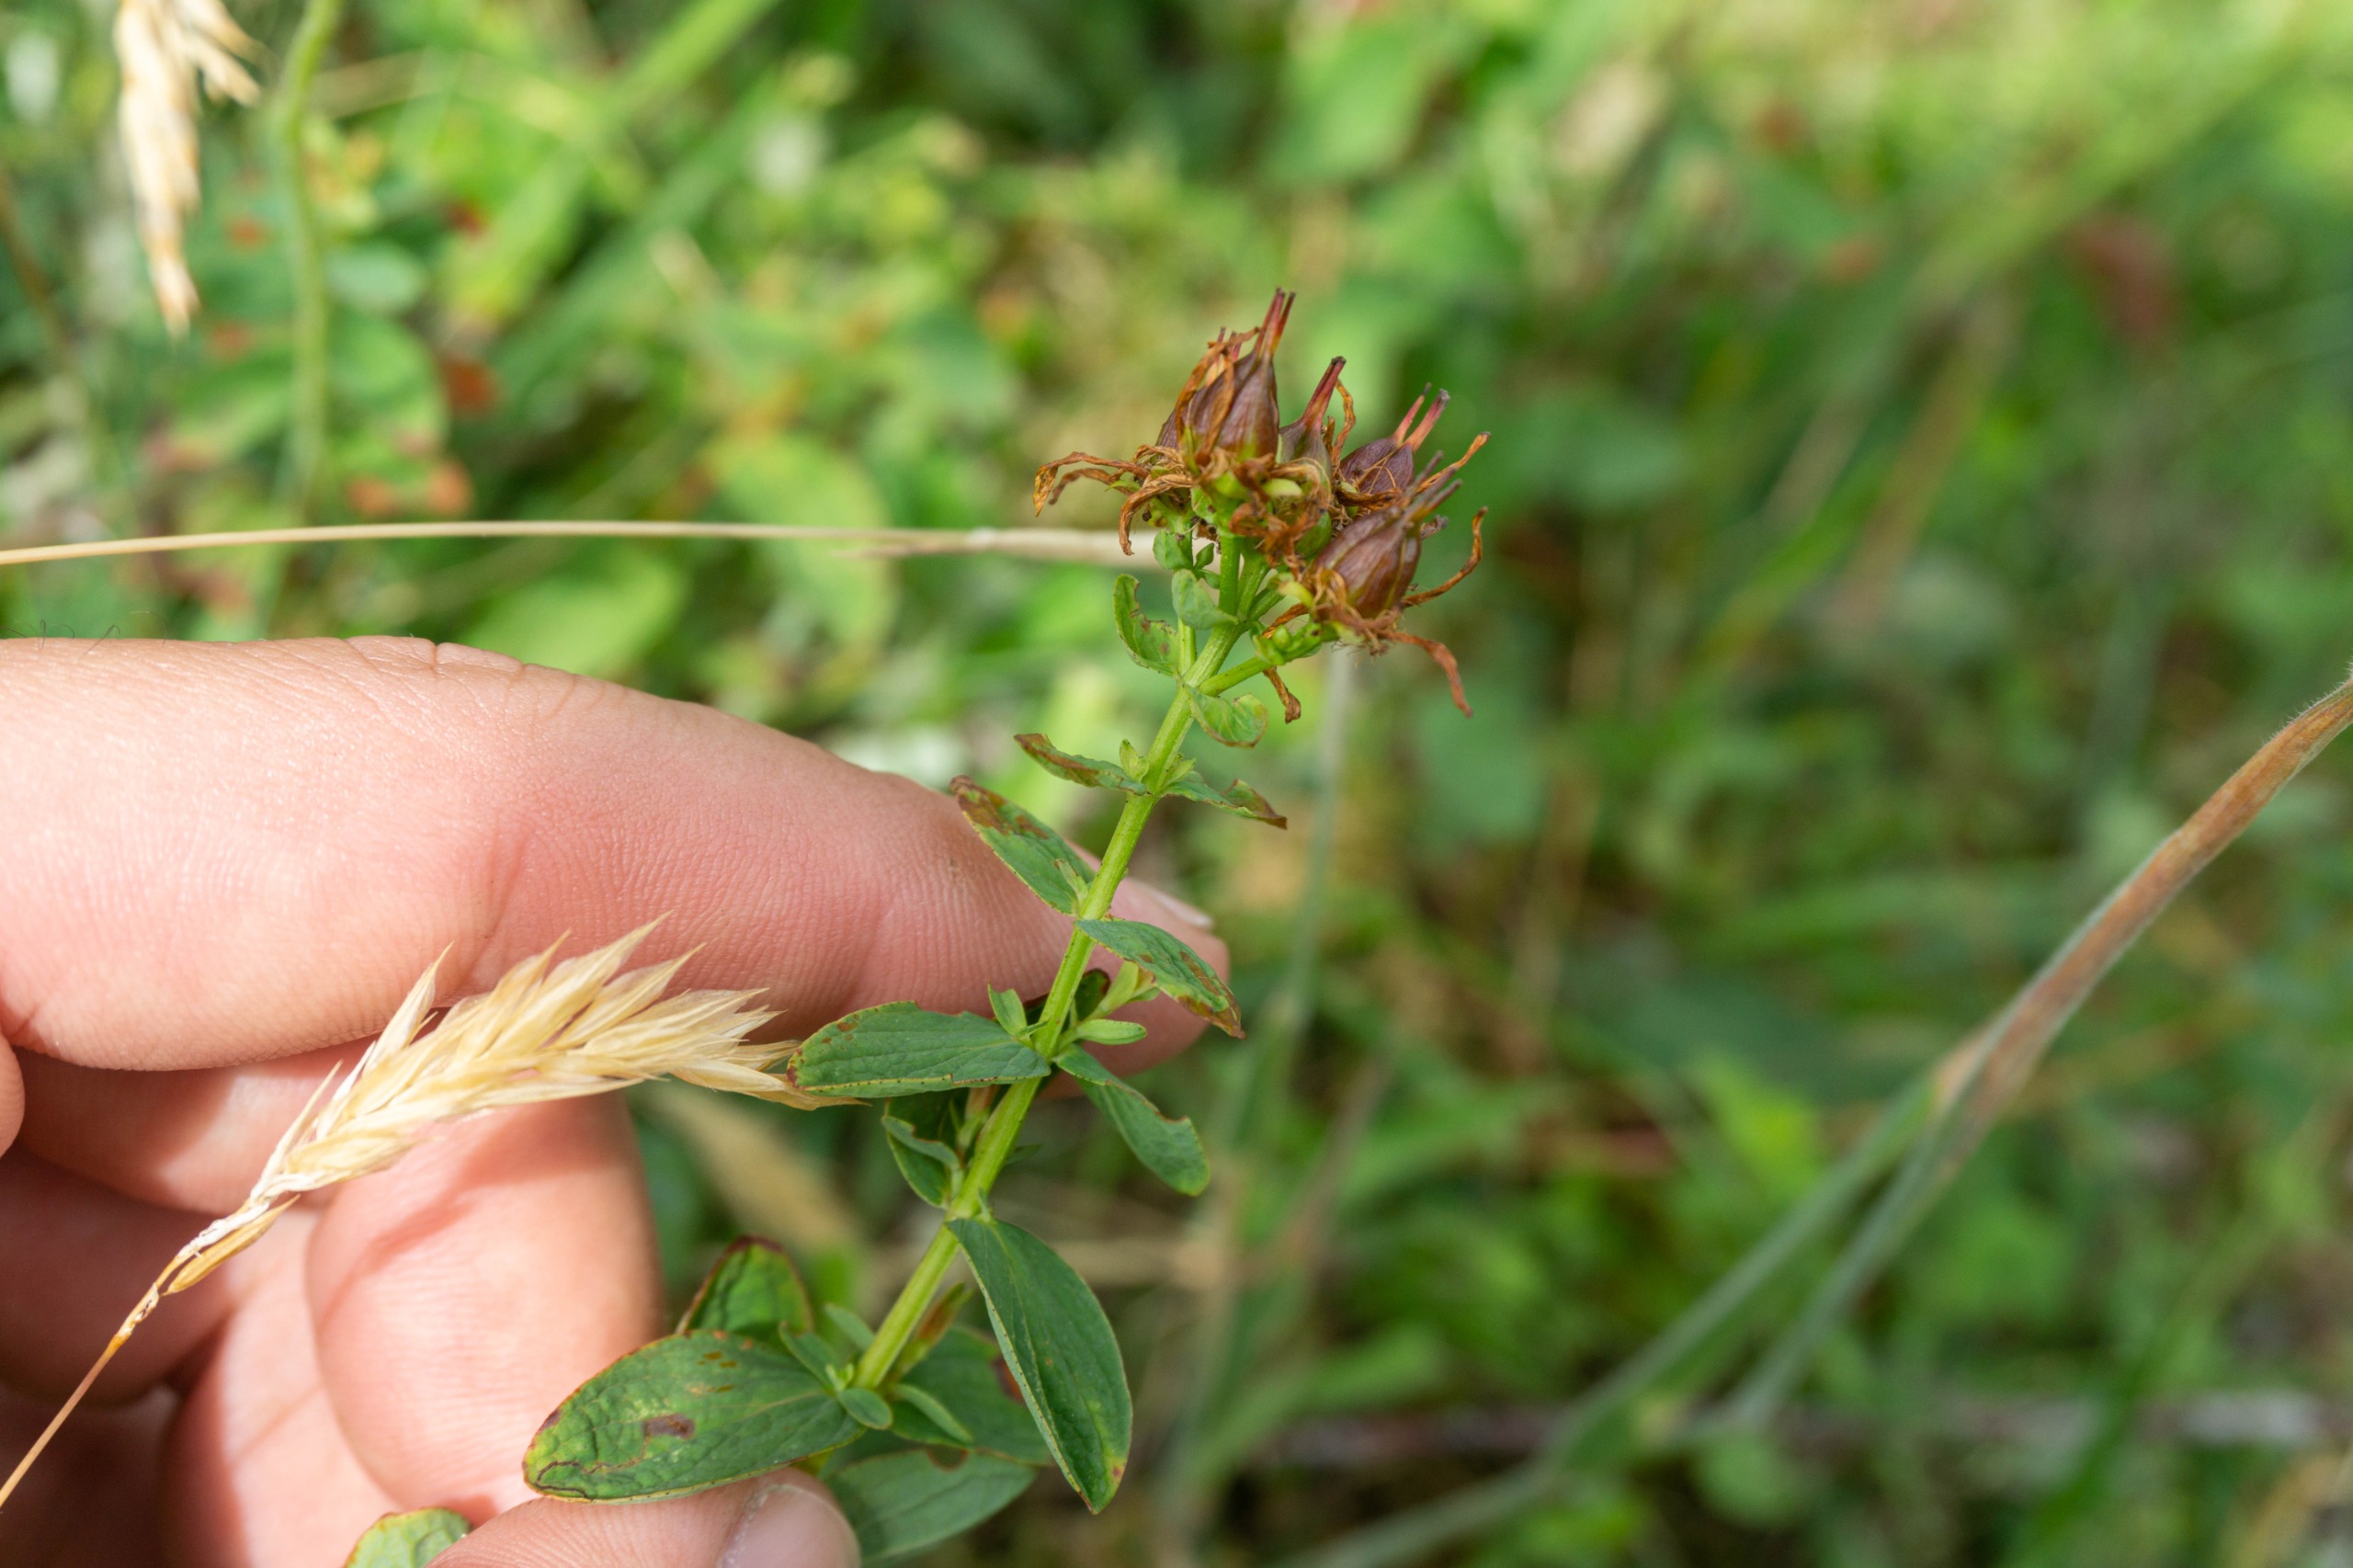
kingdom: Plantae
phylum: Tracheophyta
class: Magnoliopsida
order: Malpighiales
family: Hypericaceae
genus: Hypericum
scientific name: Hypericum maculatum
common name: Kantet perikon
